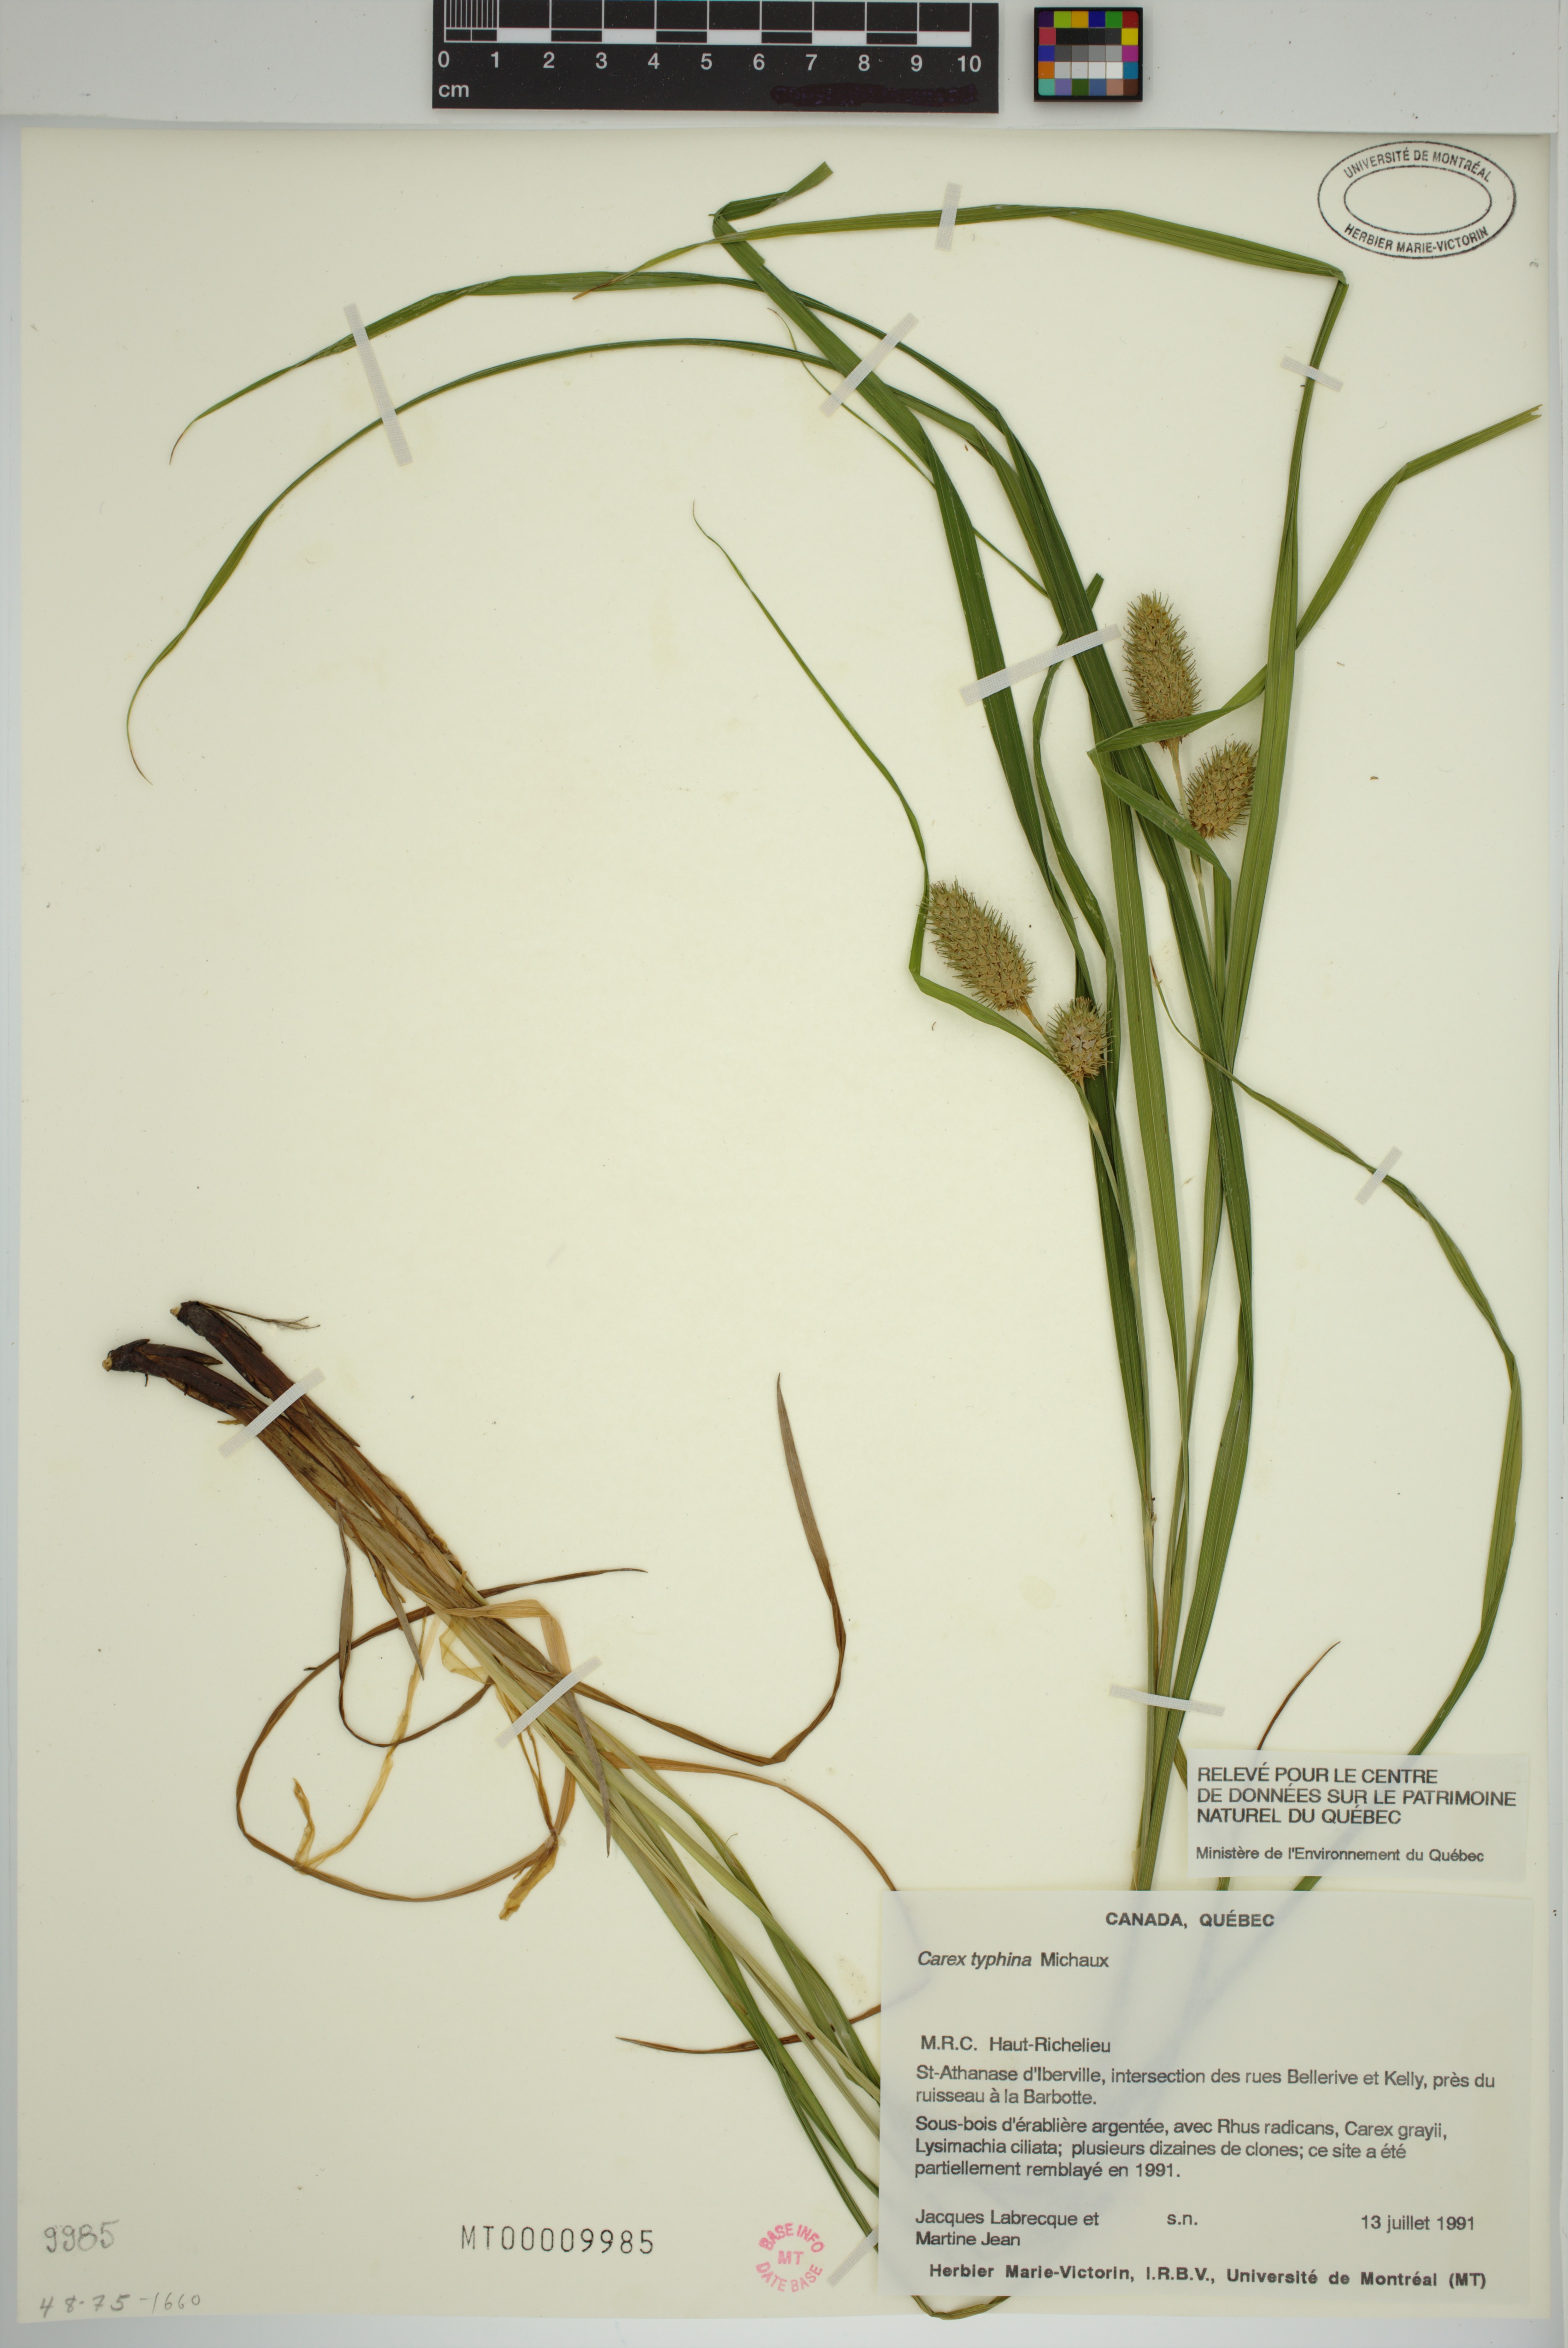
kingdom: Plantae
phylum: Tracheophyta
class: Liliopsida
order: Poales
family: Cyperaceae
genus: Carex
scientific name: Carex typhina
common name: Cattail sedge
